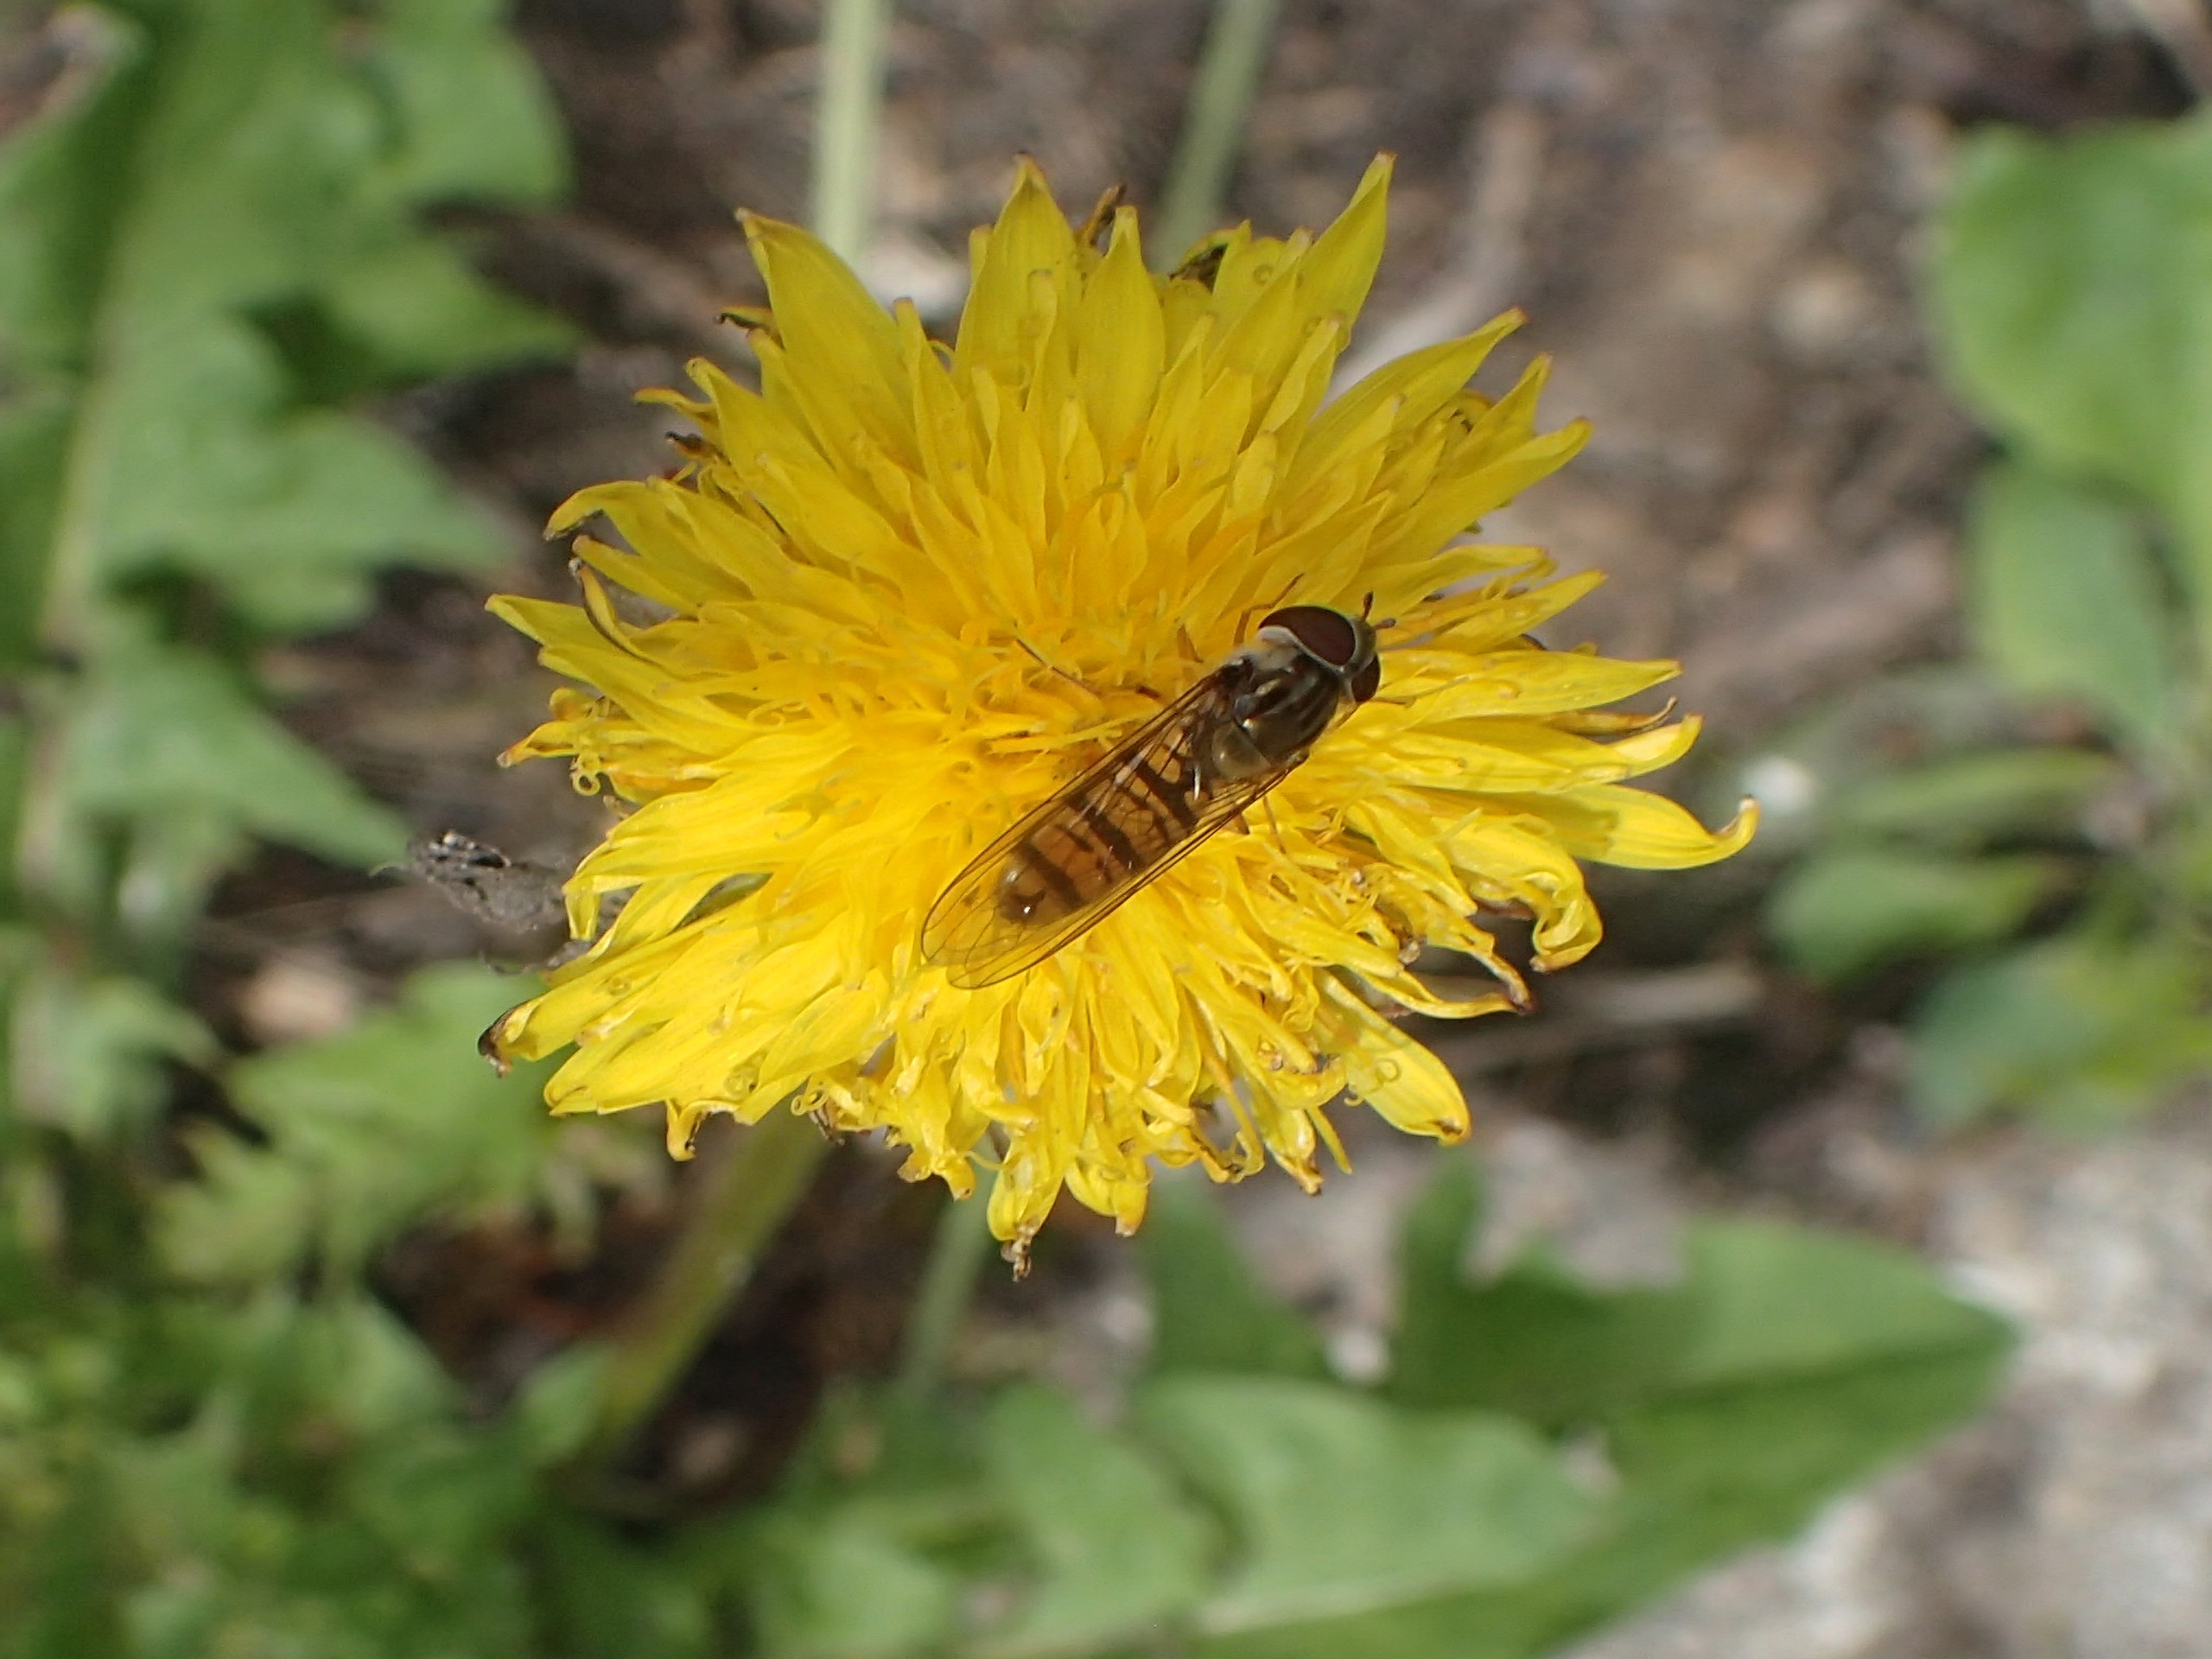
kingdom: Animalia
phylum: Arthropoda
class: Insecta
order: Diptera
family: Syrphidae
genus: Episyrphus
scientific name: Episyrphus balteatus
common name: Dobbeltbåndet svirreflue
